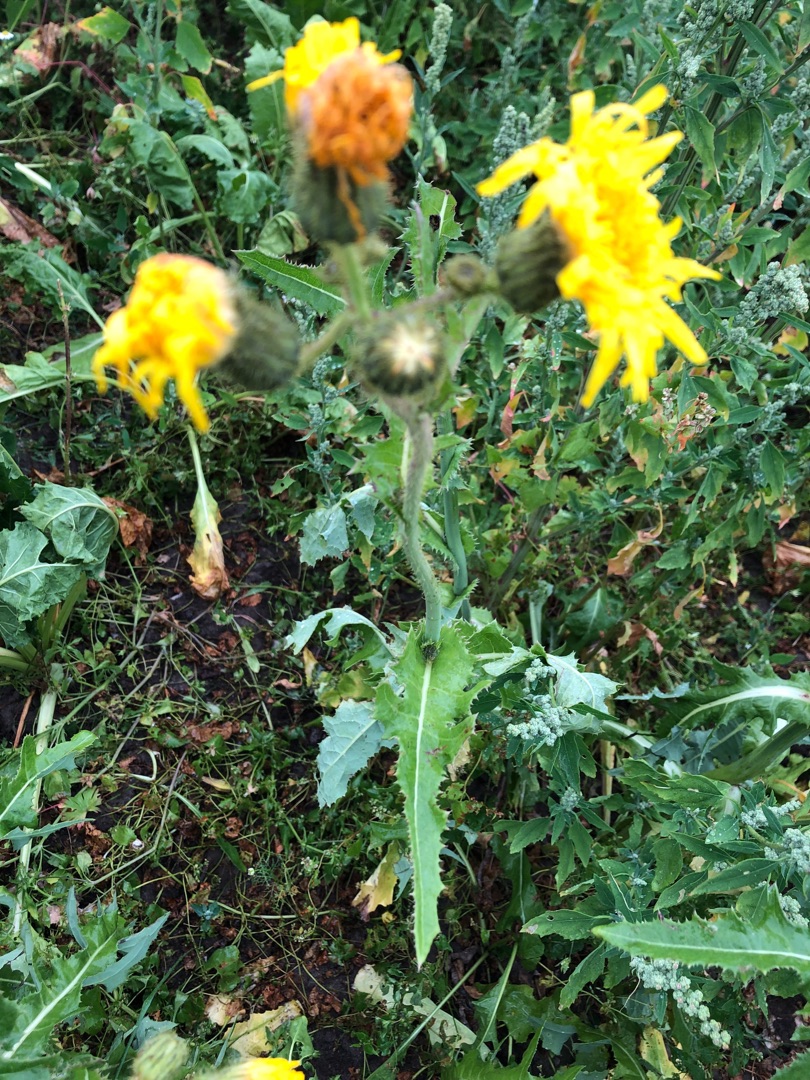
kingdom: Plantae
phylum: Tracheophyta
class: Magnoliopsida
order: Asterales
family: Asteraceae
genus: Sonchus
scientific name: Sonchus arvensis
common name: Ager-svinemælk
